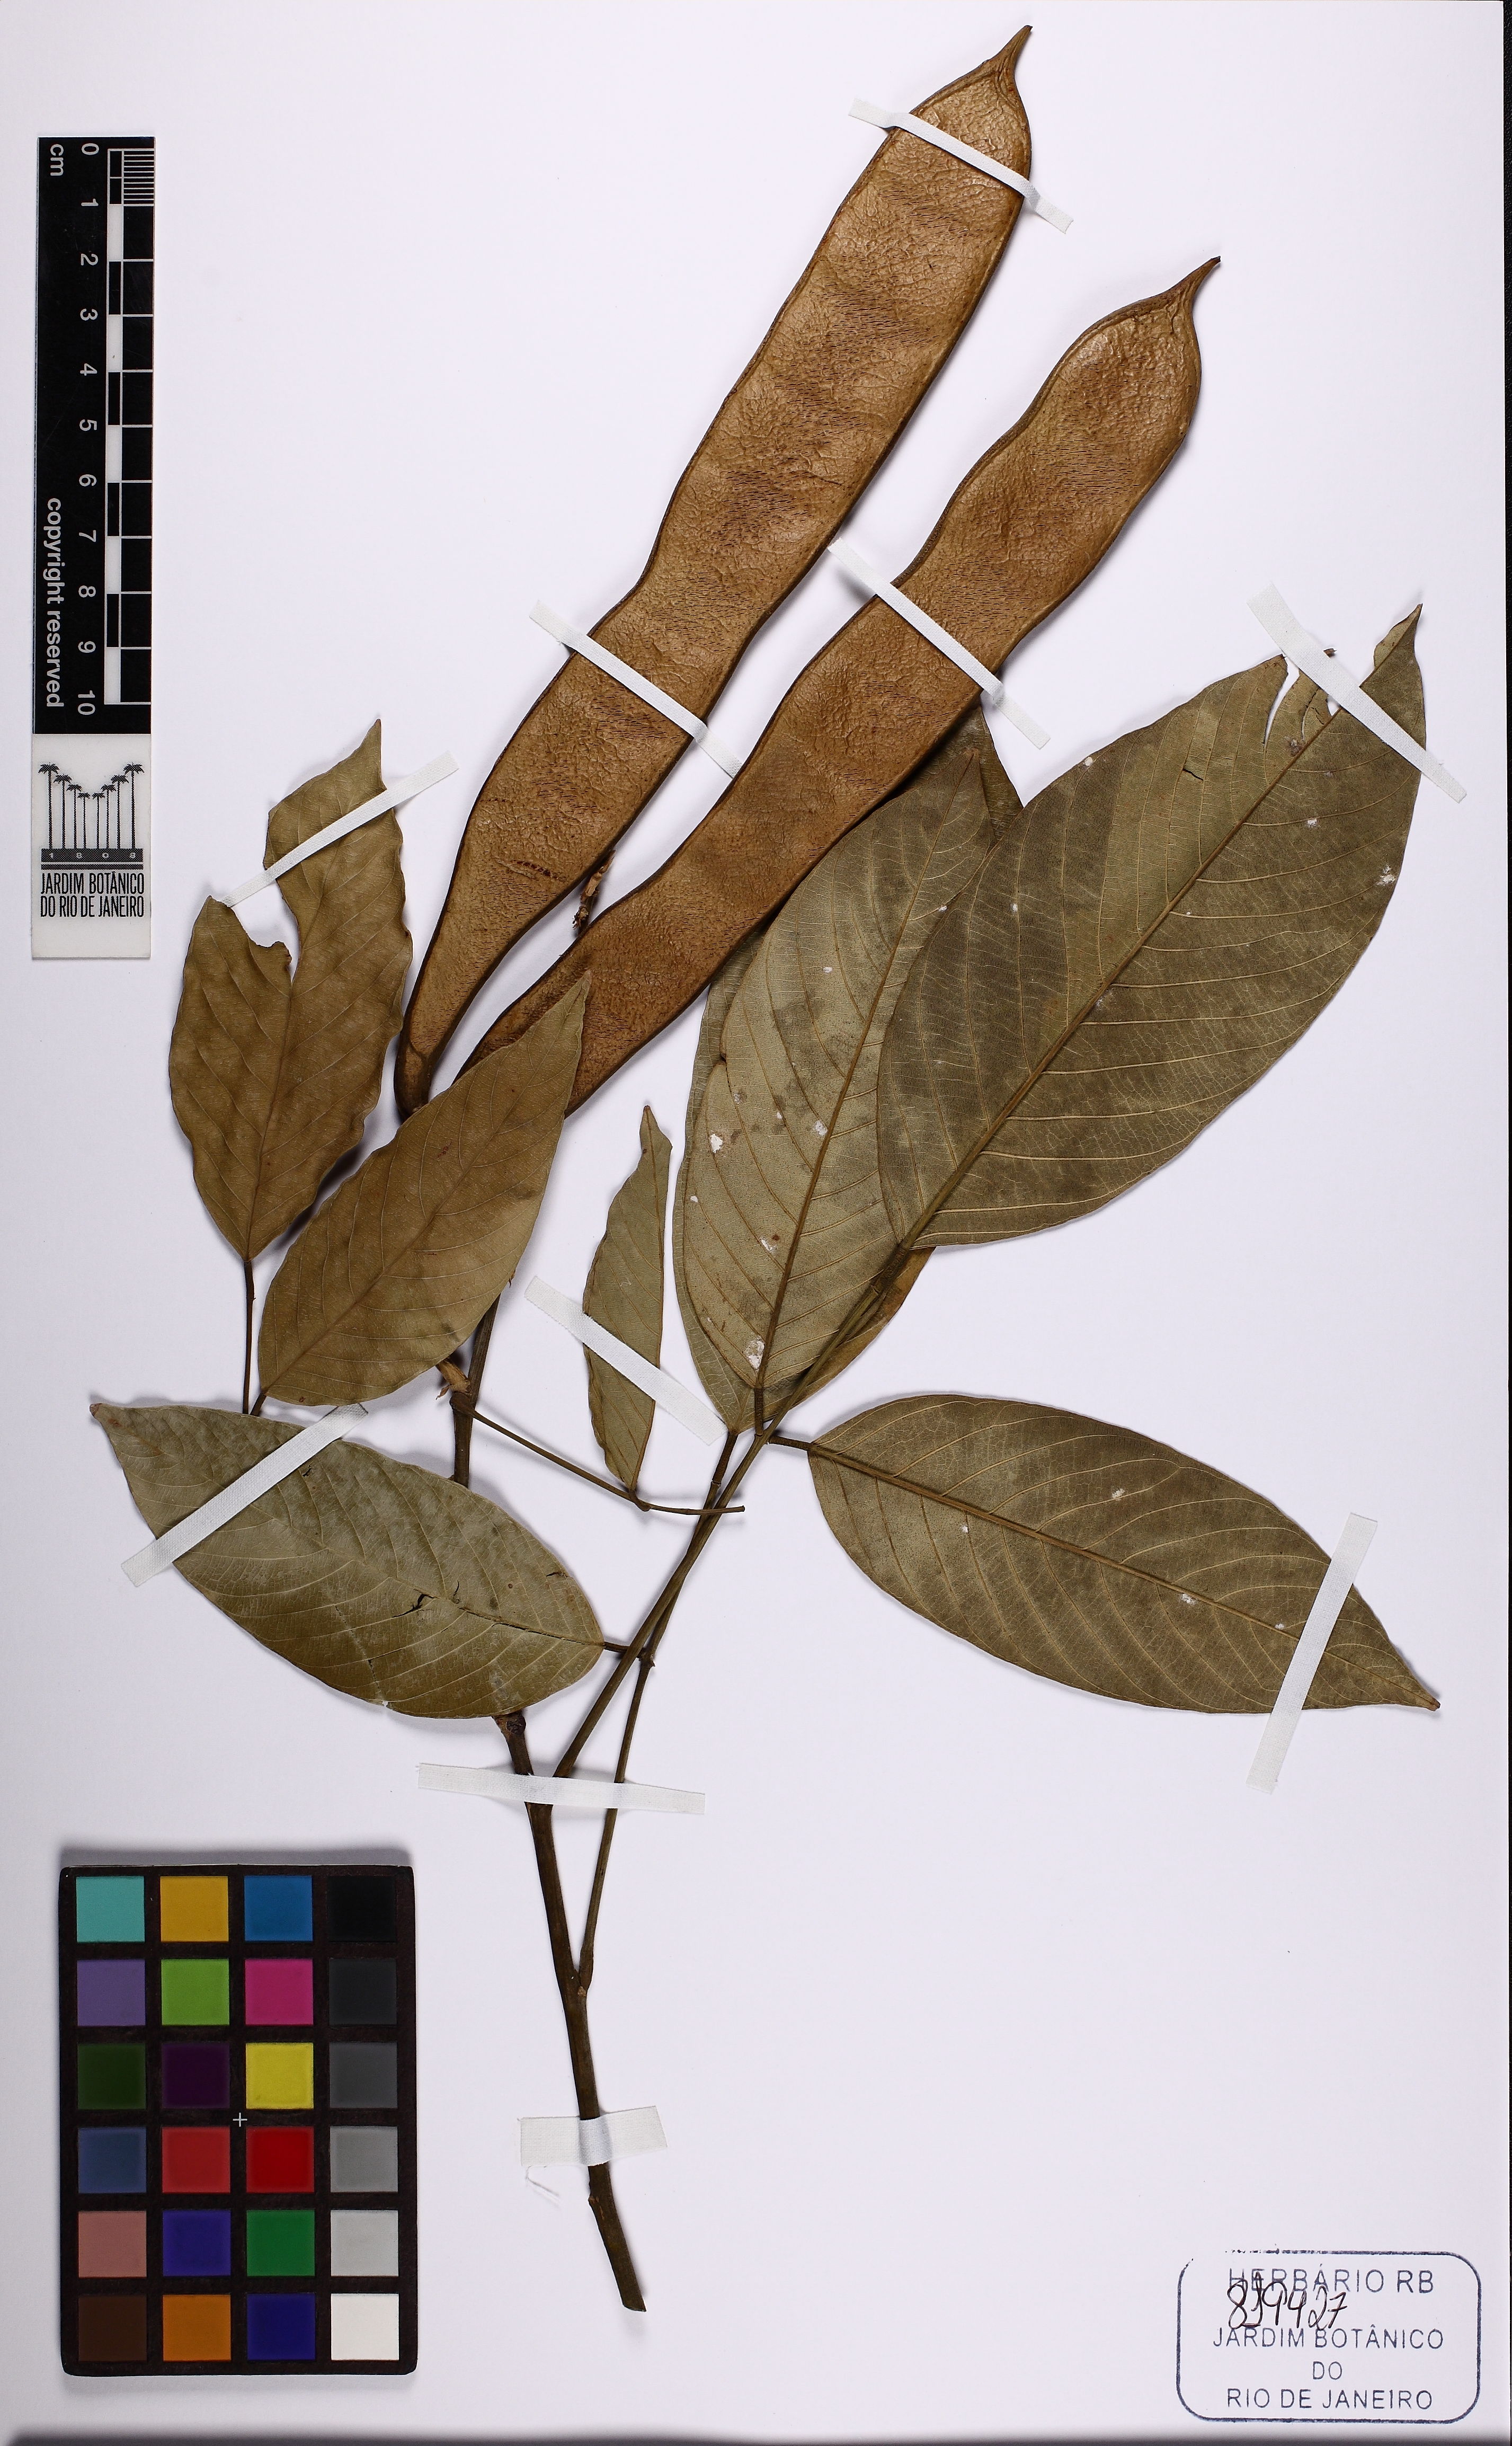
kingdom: Plantae
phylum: Tracheophyta
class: Magnoliopsida
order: Fabales
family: Fabaceae
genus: Clitoria
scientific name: Clitoria
